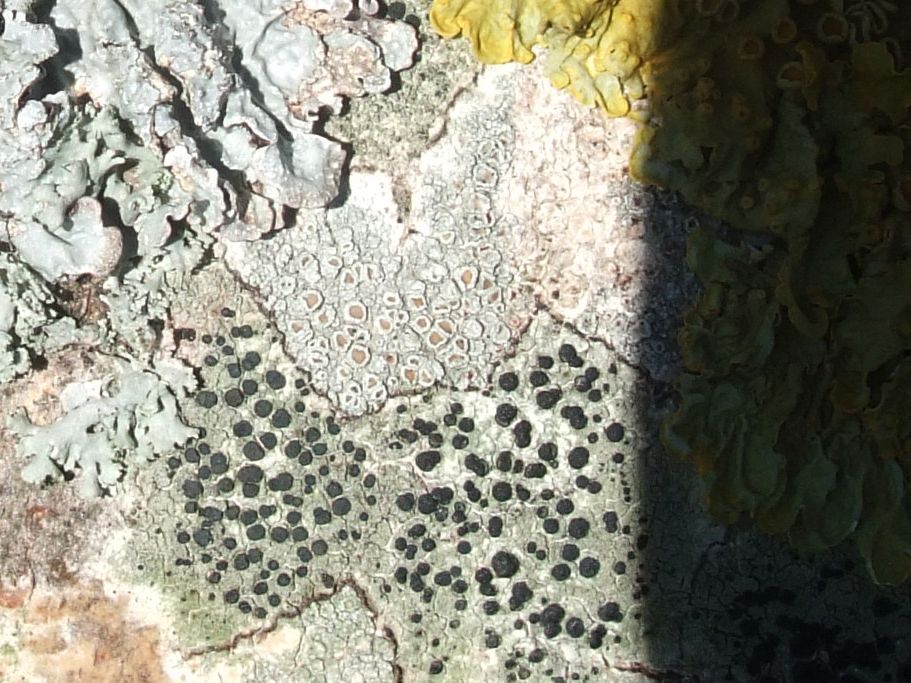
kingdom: Fungi
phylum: Ascomycota
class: Lecanoromycetes
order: Lecanorales
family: Lecanoraceae
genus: Lecanora
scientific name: Lecanora chlarotera
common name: brun kantskivelav
